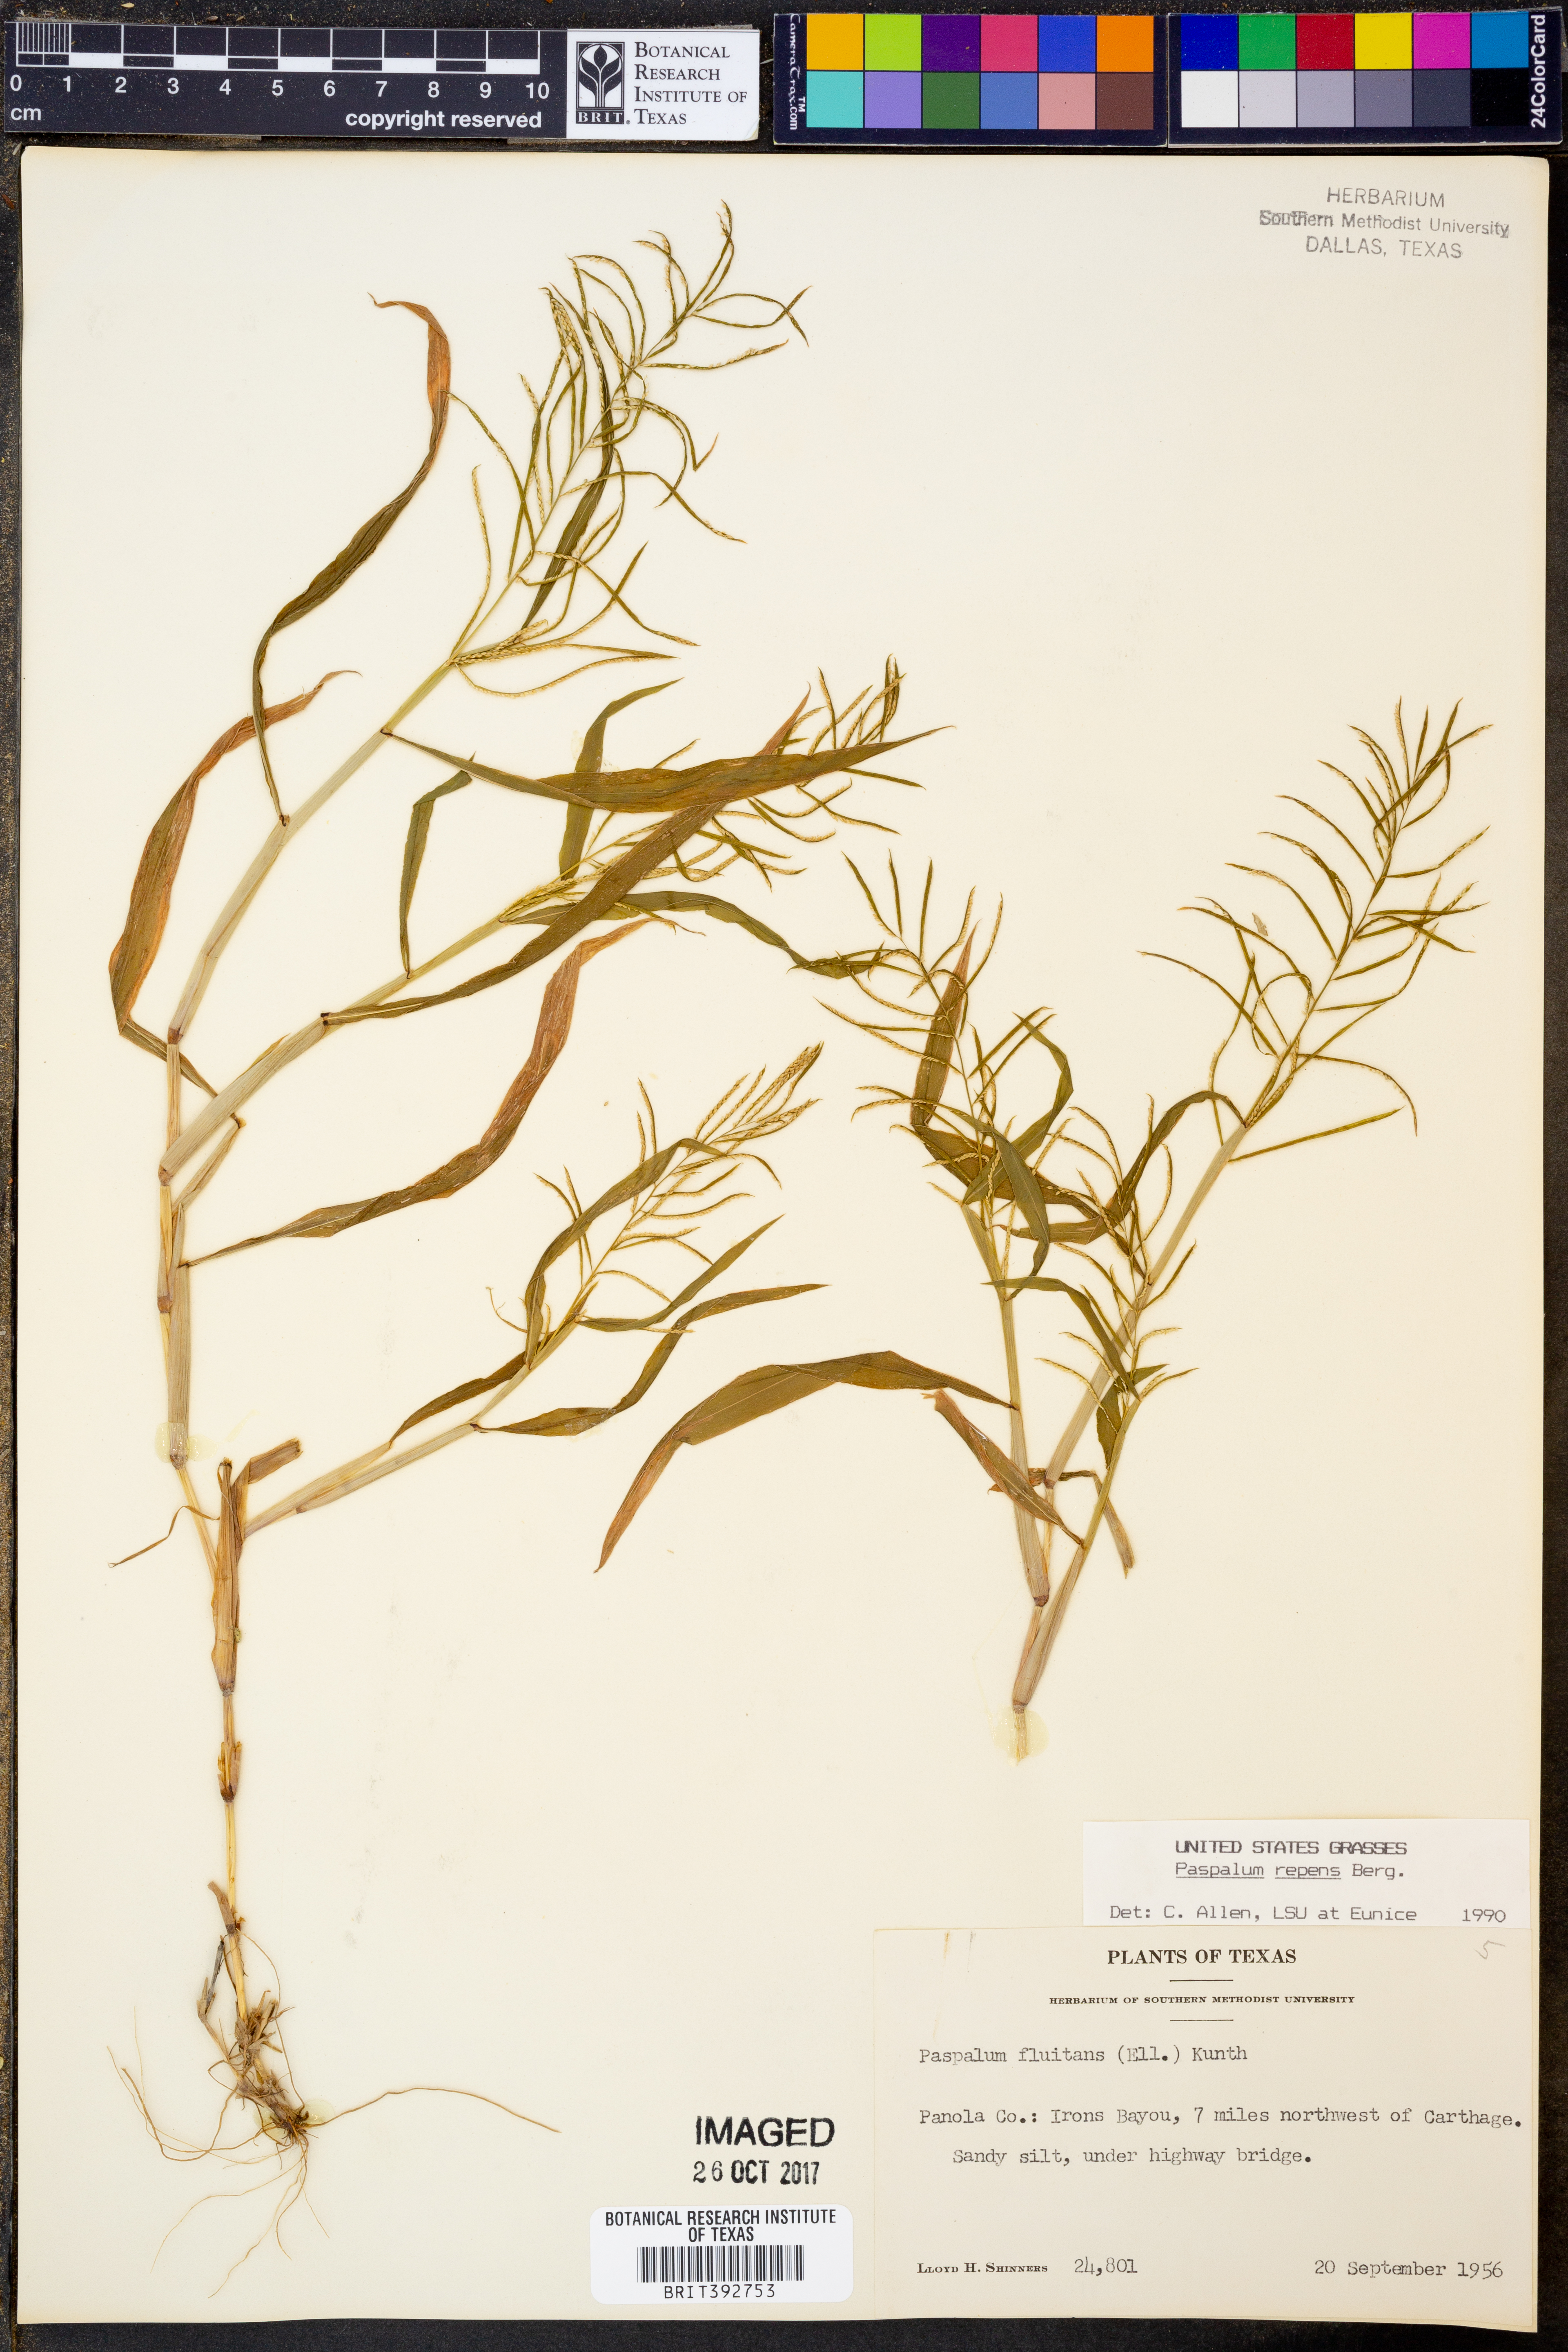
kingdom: Plantae
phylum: Tracheophyta
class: Liliopsida
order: Poales
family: Poaceae
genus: Paspalum
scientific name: Paspalum repens
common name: Water paspalum
